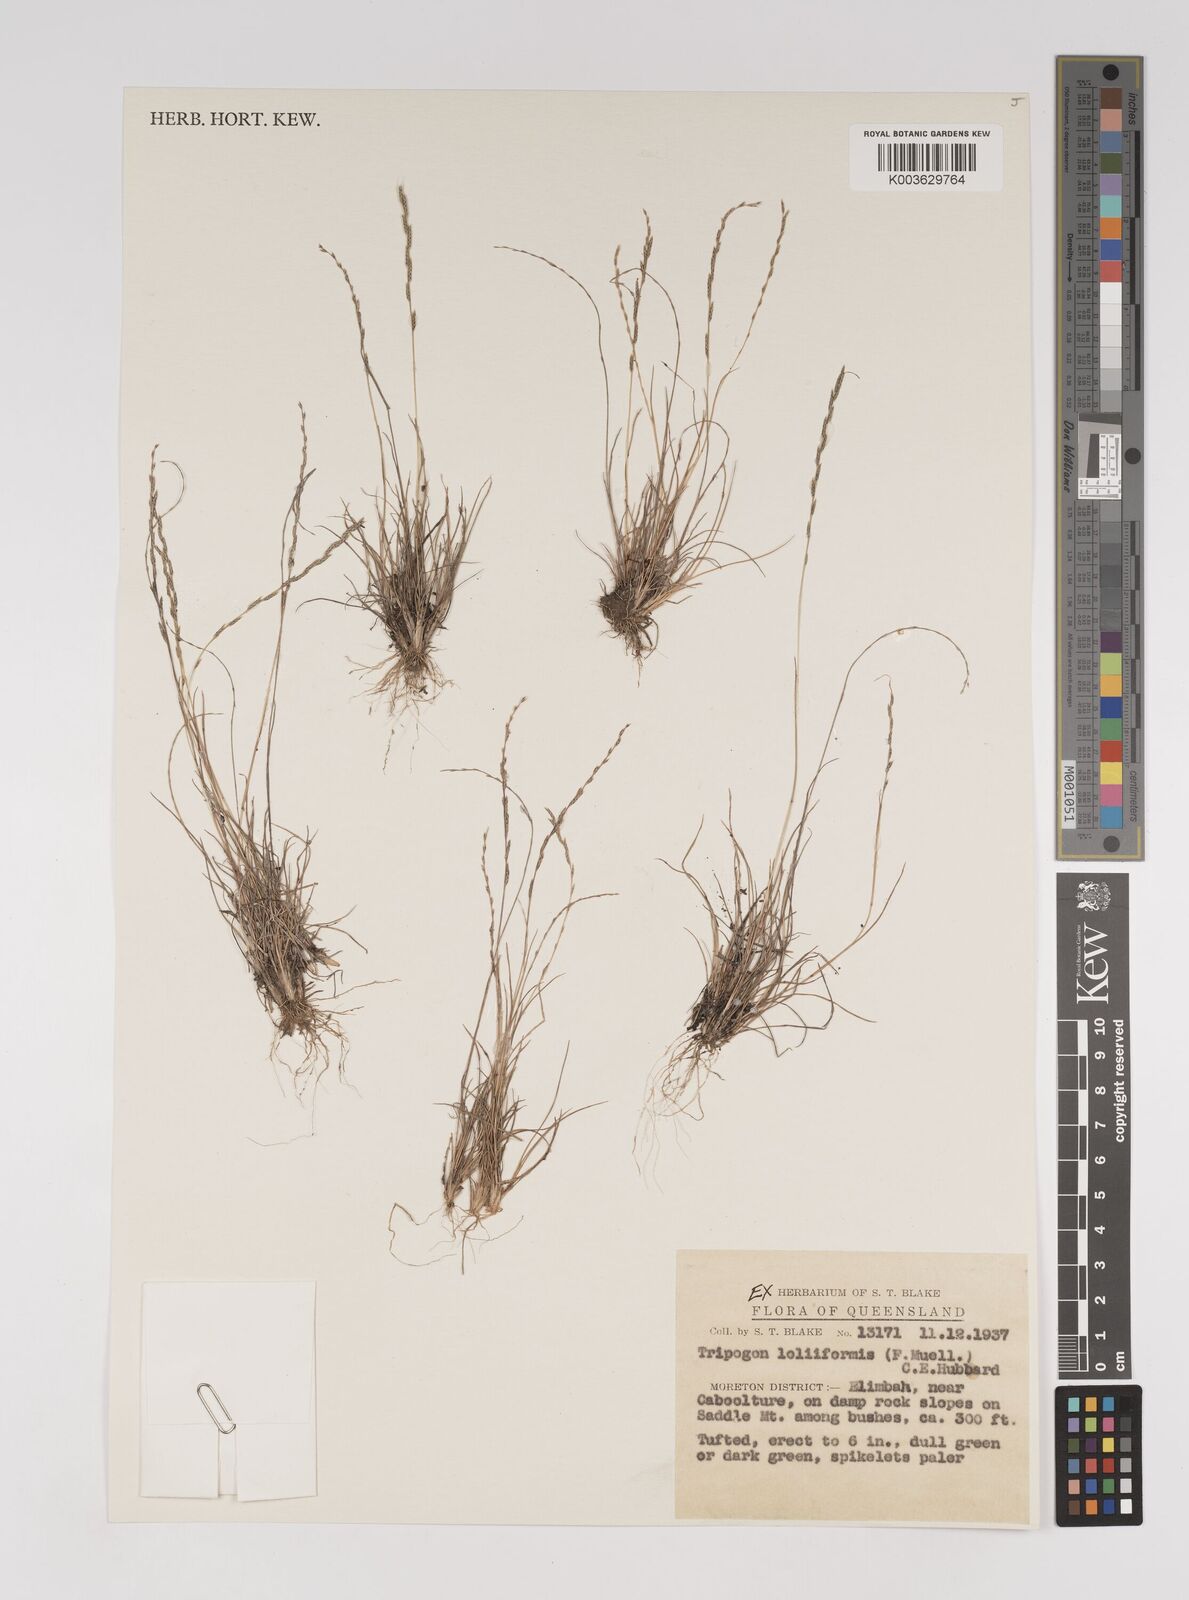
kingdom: Plantae
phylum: Tracheophyta
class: Liliopsida
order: Poales
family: Poaceae
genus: Tripogonella
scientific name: Tripogonella loliiformis
